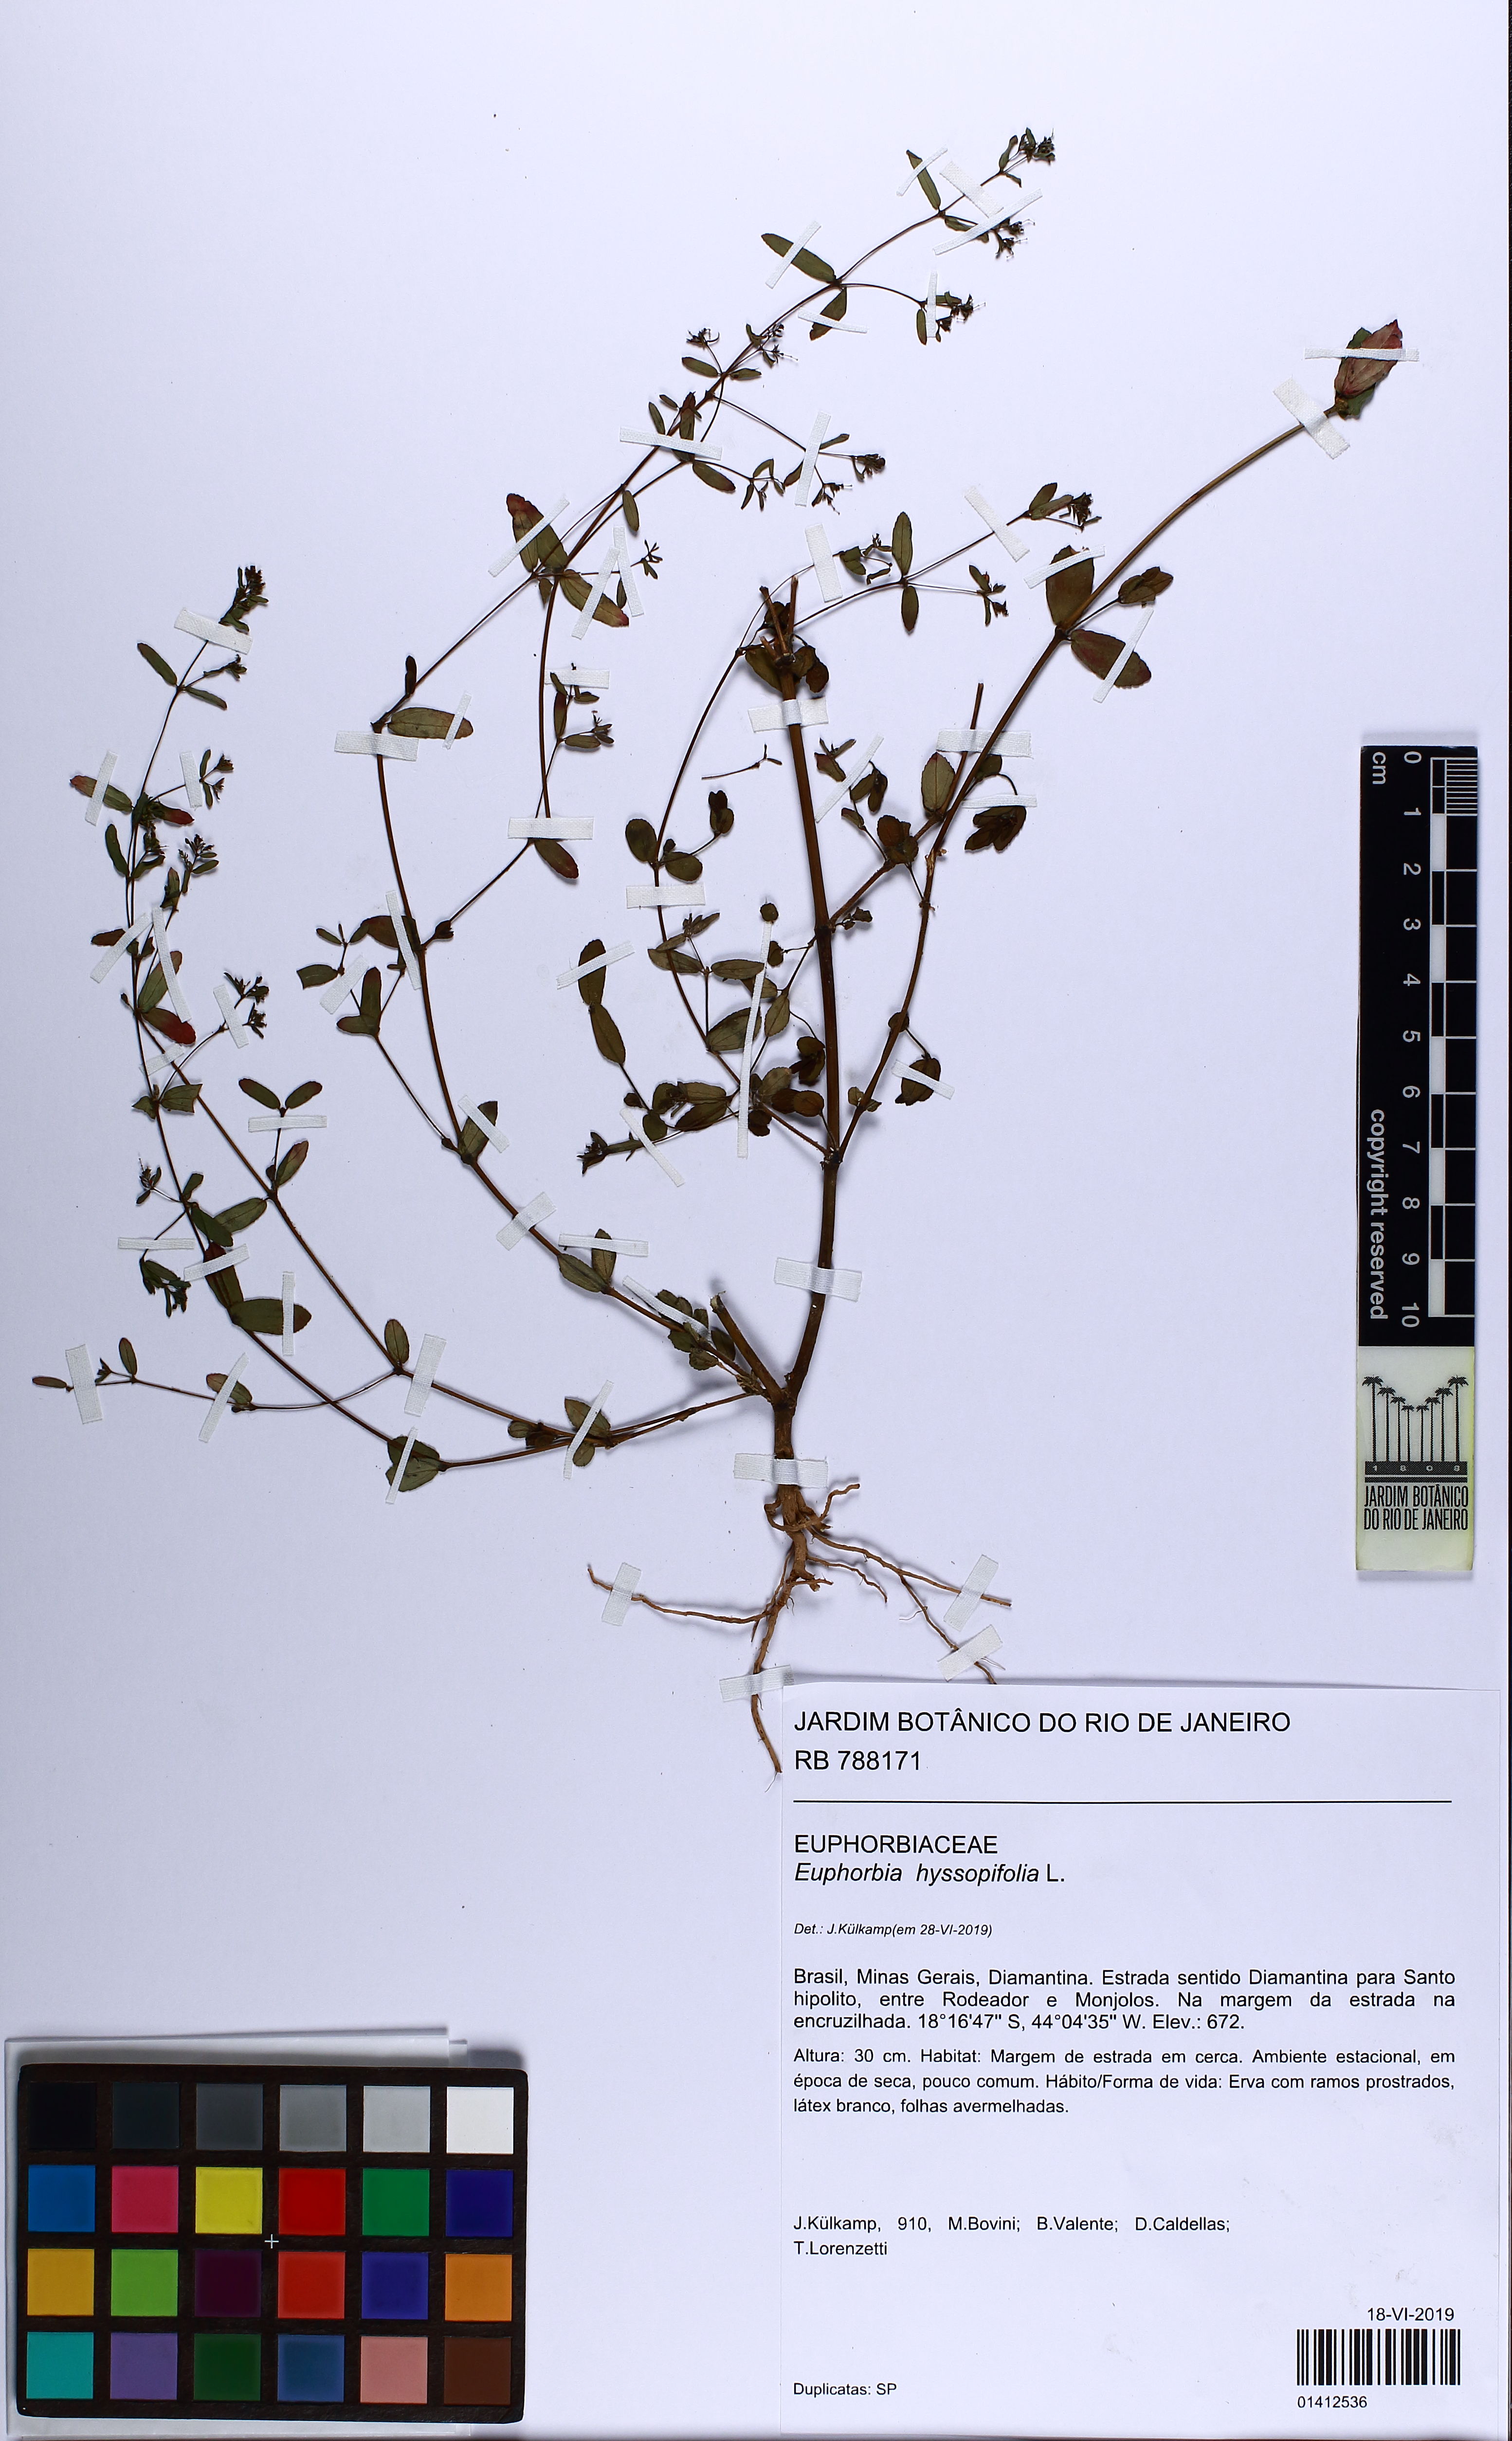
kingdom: Plantae
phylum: Tracheophyta
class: Magnoliopsida
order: Malpighiales
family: Euphorbiaceae
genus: Euphorbia
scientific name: Euphorbia hyssopifolia
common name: Hyssopleaf sandmat
